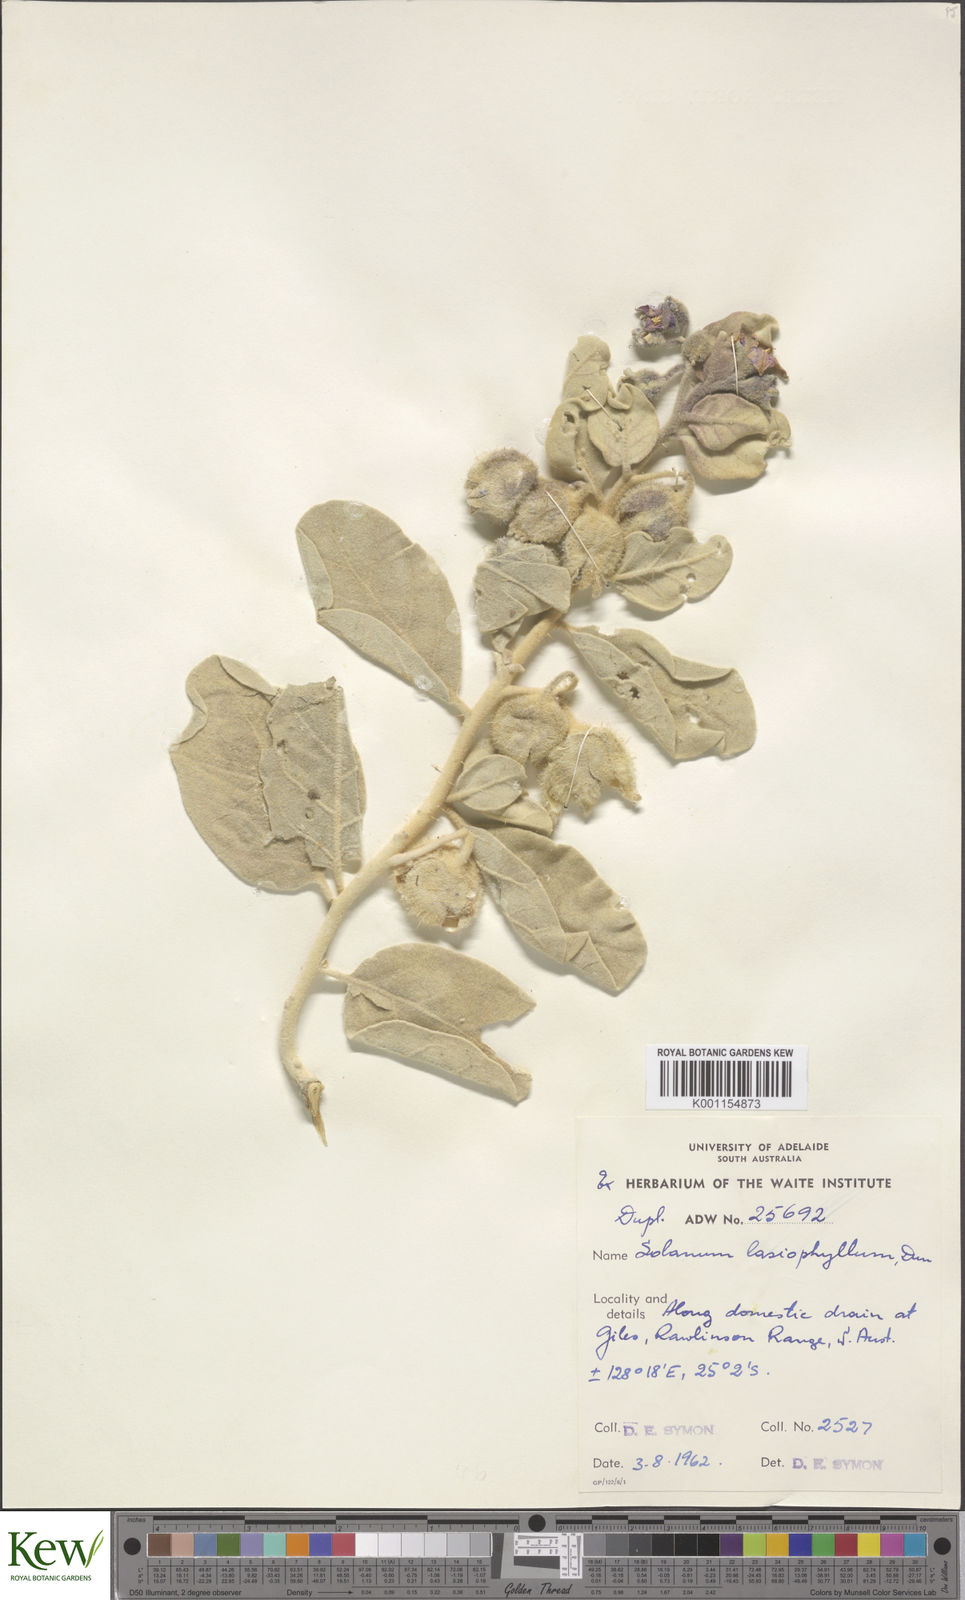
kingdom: Plantae
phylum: Tracheophyta
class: Magnoliopsida
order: Solanales
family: Solanaceae
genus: Solanum
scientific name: Solanum lasiophyllum
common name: Flannelbush
